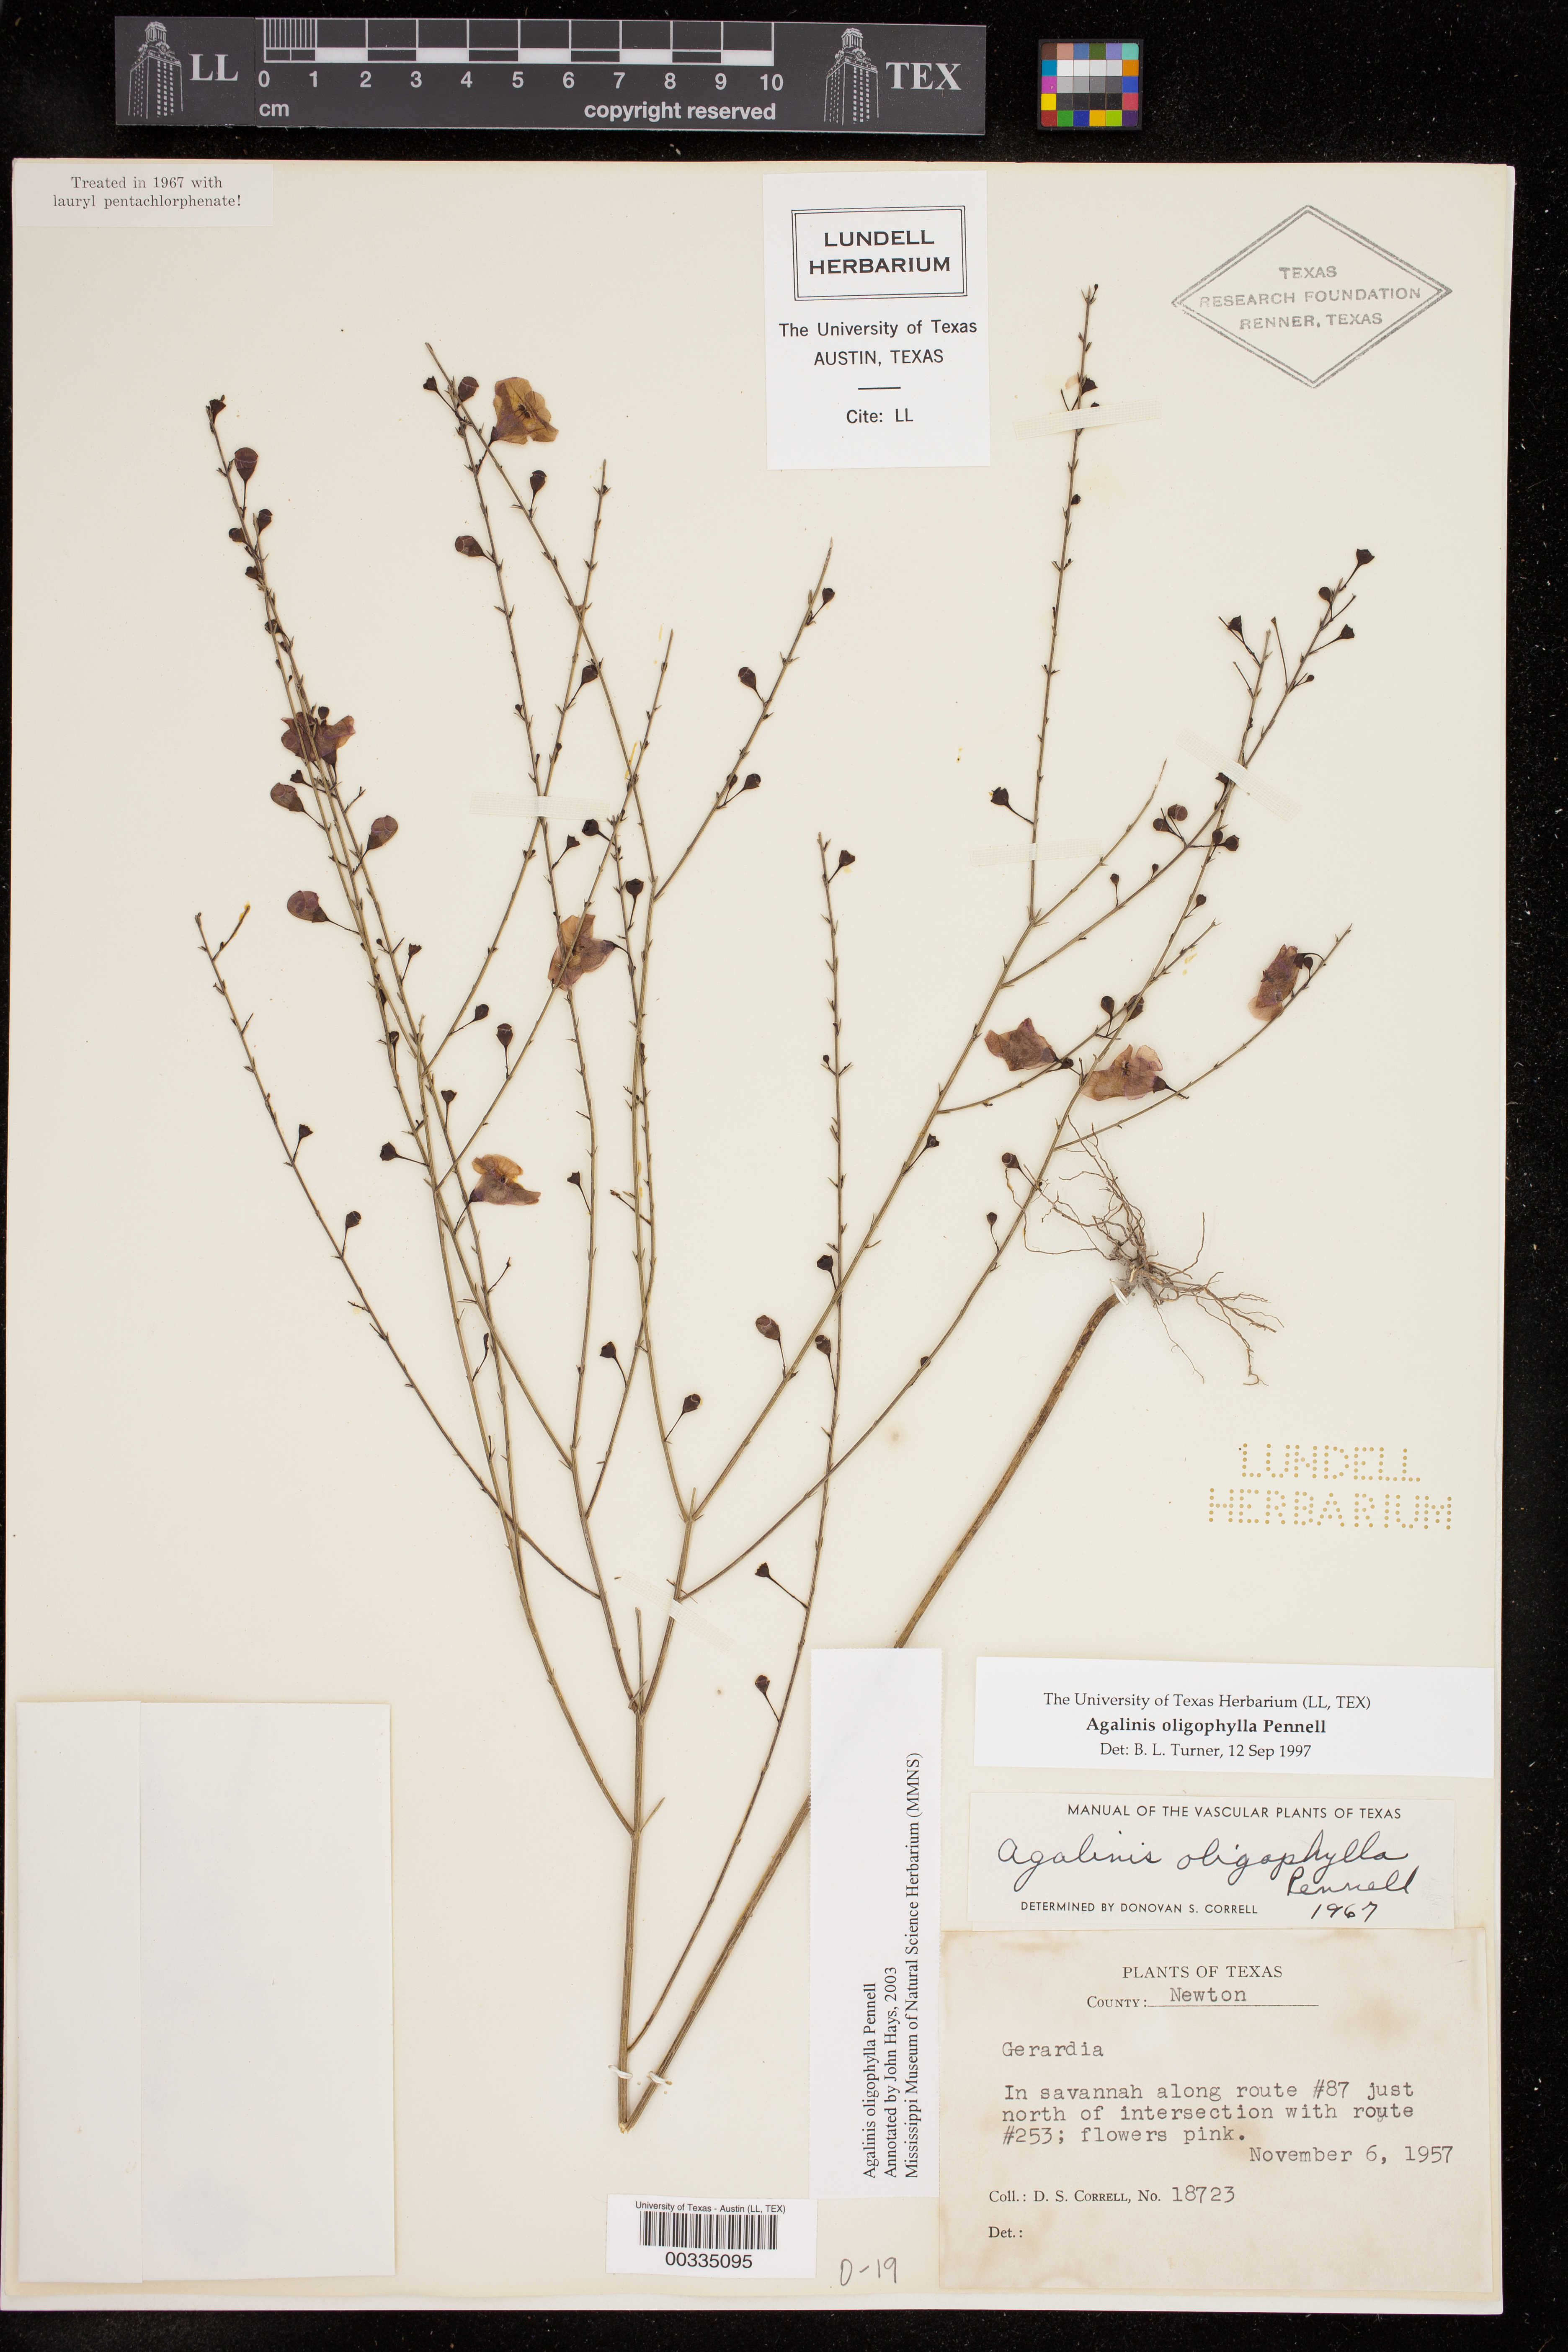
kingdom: Plantae
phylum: Tracheophyta
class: Magnoliopsida
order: Lamiales
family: Orobanchaceae
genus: Agalinis
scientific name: Agalinis oligophylla
